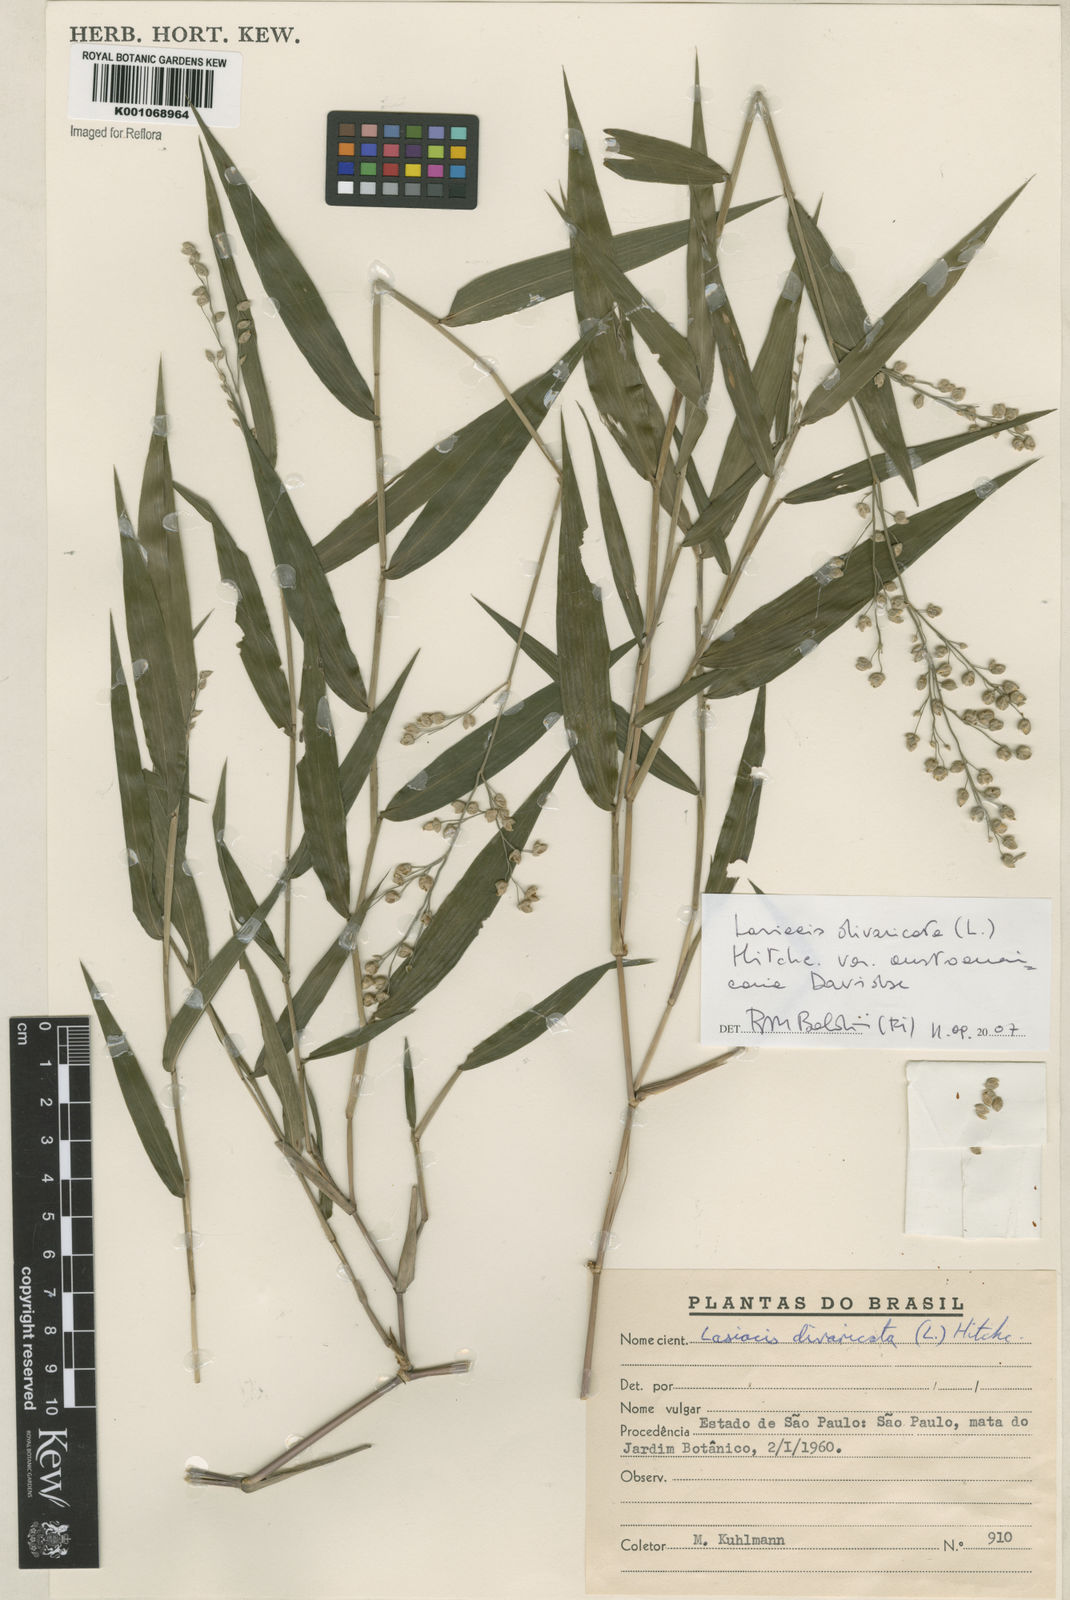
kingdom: Plantae
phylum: Tracheophyta
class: Liliopsida
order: Poales
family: Poaceae
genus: Lasiacis
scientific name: Lasiacis divaricata
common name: Smallcane
